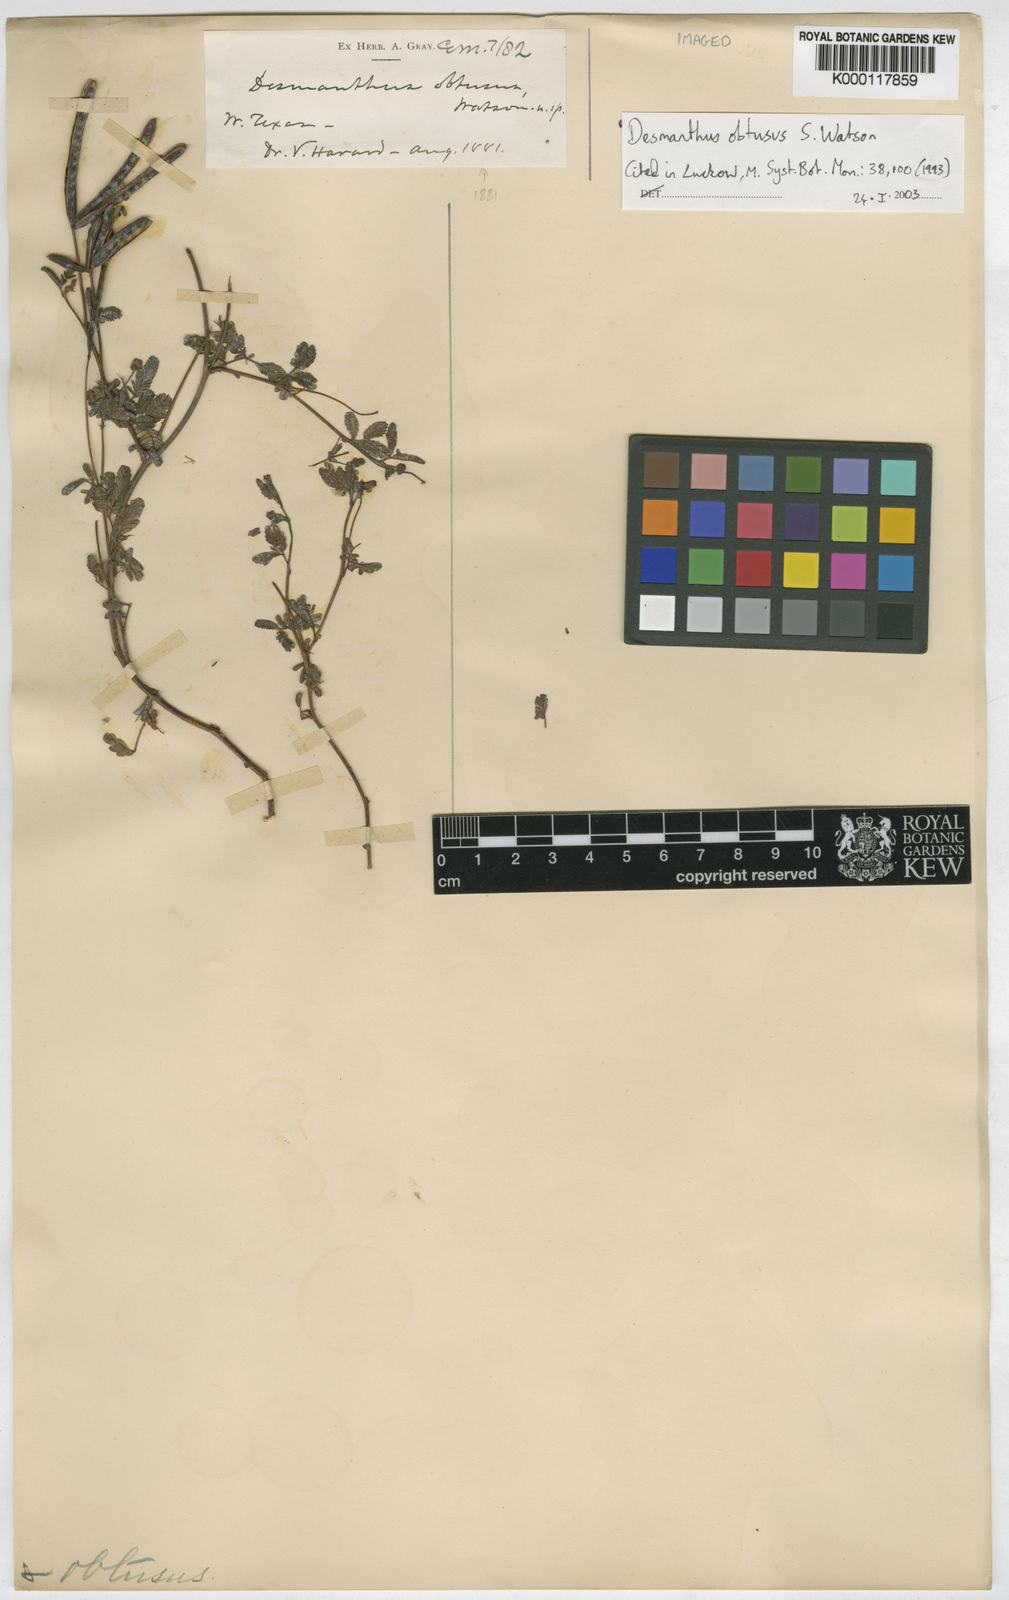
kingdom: Plantae
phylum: Tracheophyta
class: Magnoliopsida
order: Fabales
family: Fabaceae
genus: Desmanthus
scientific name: Desmanthus obtusus
